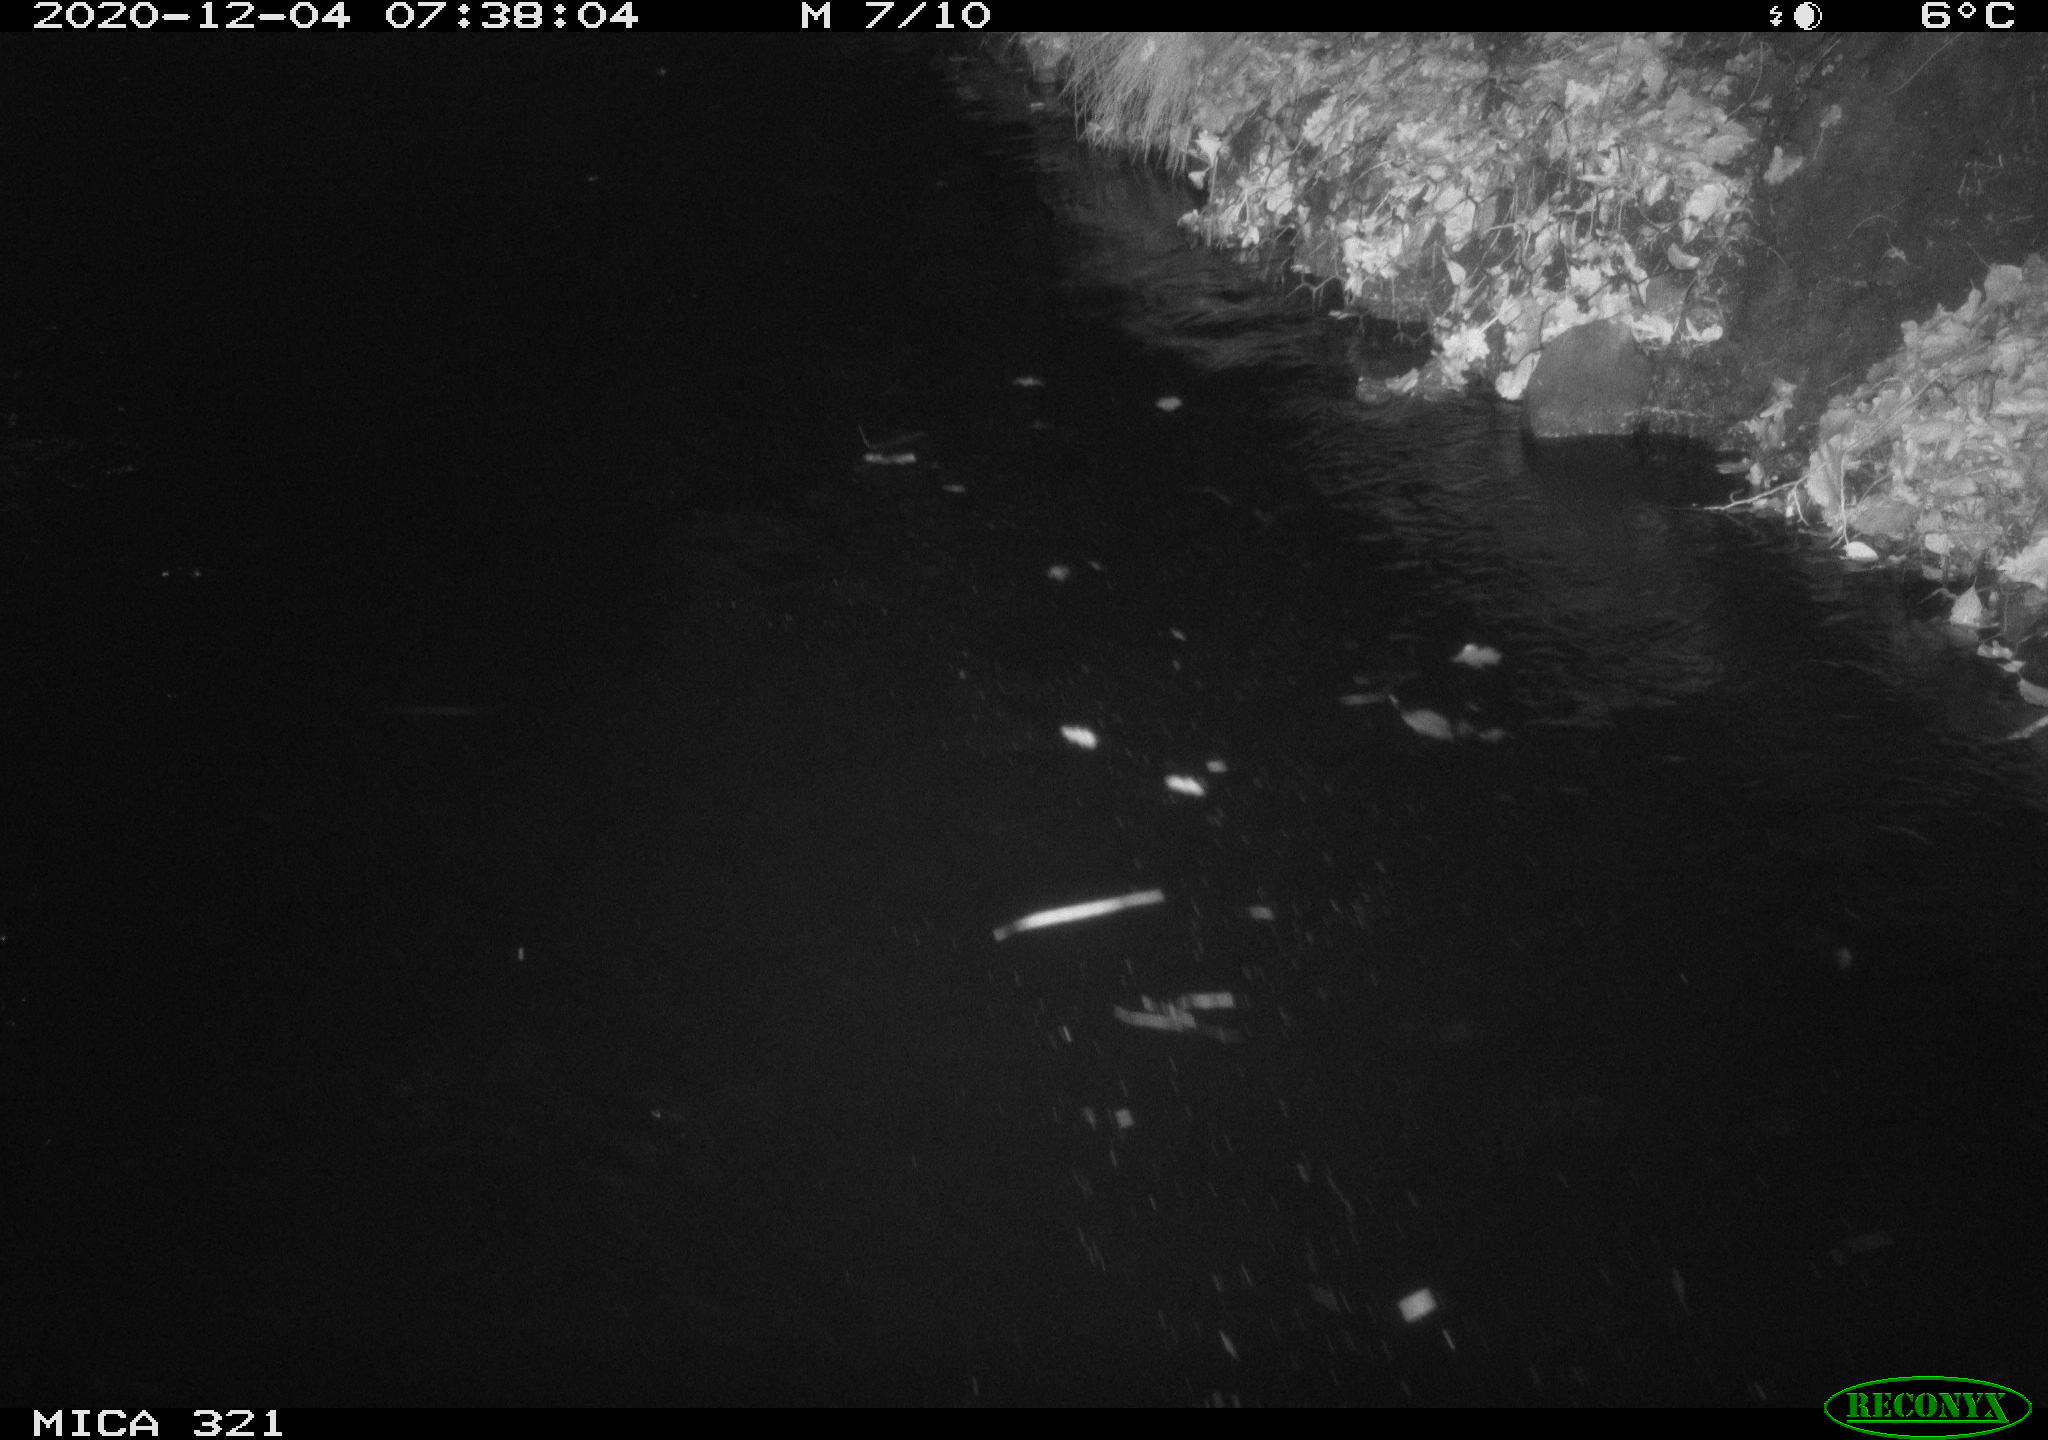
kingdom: Animalia
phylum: Chordata
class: Aves
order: Anseriformes
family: Anatidae
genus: Anas
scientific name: Anas platyrhynchos
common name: Mallard
